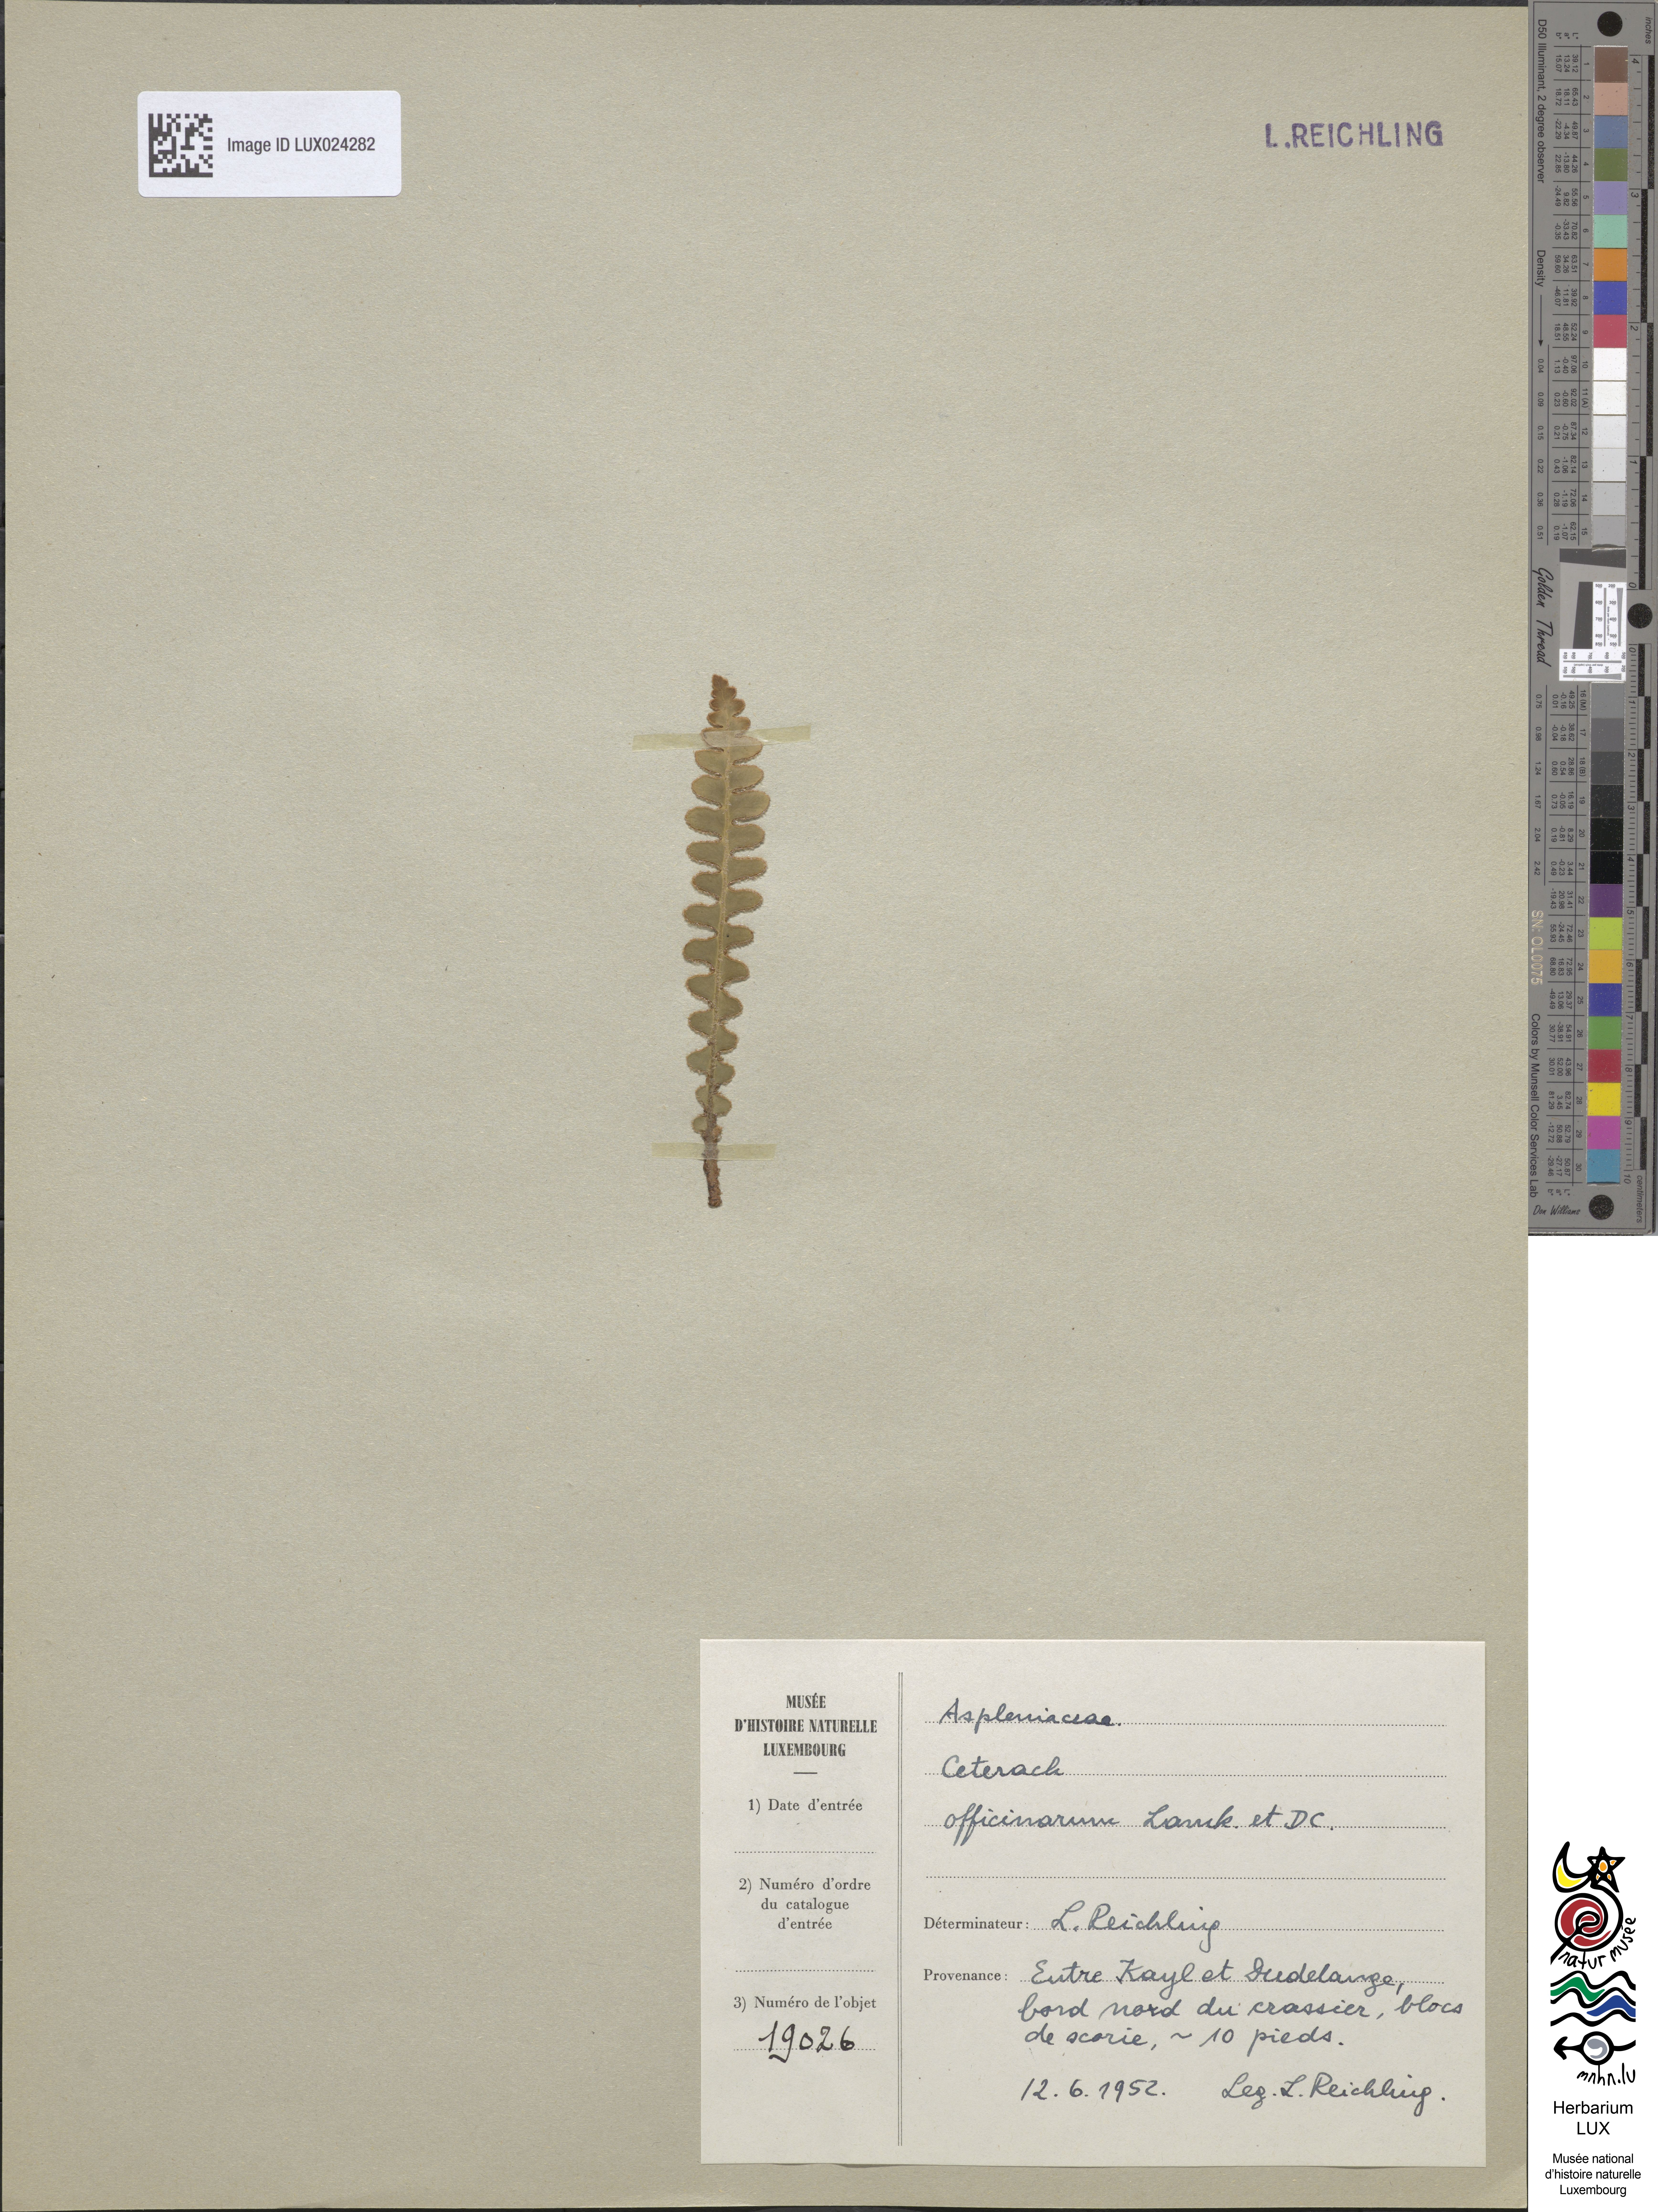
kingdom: Plantae
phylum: Tracheophyta
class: Polypodiopsida
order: Polypodiales
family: Aspleniaceae
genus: Asplenium
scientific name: Asplenium ceterach
